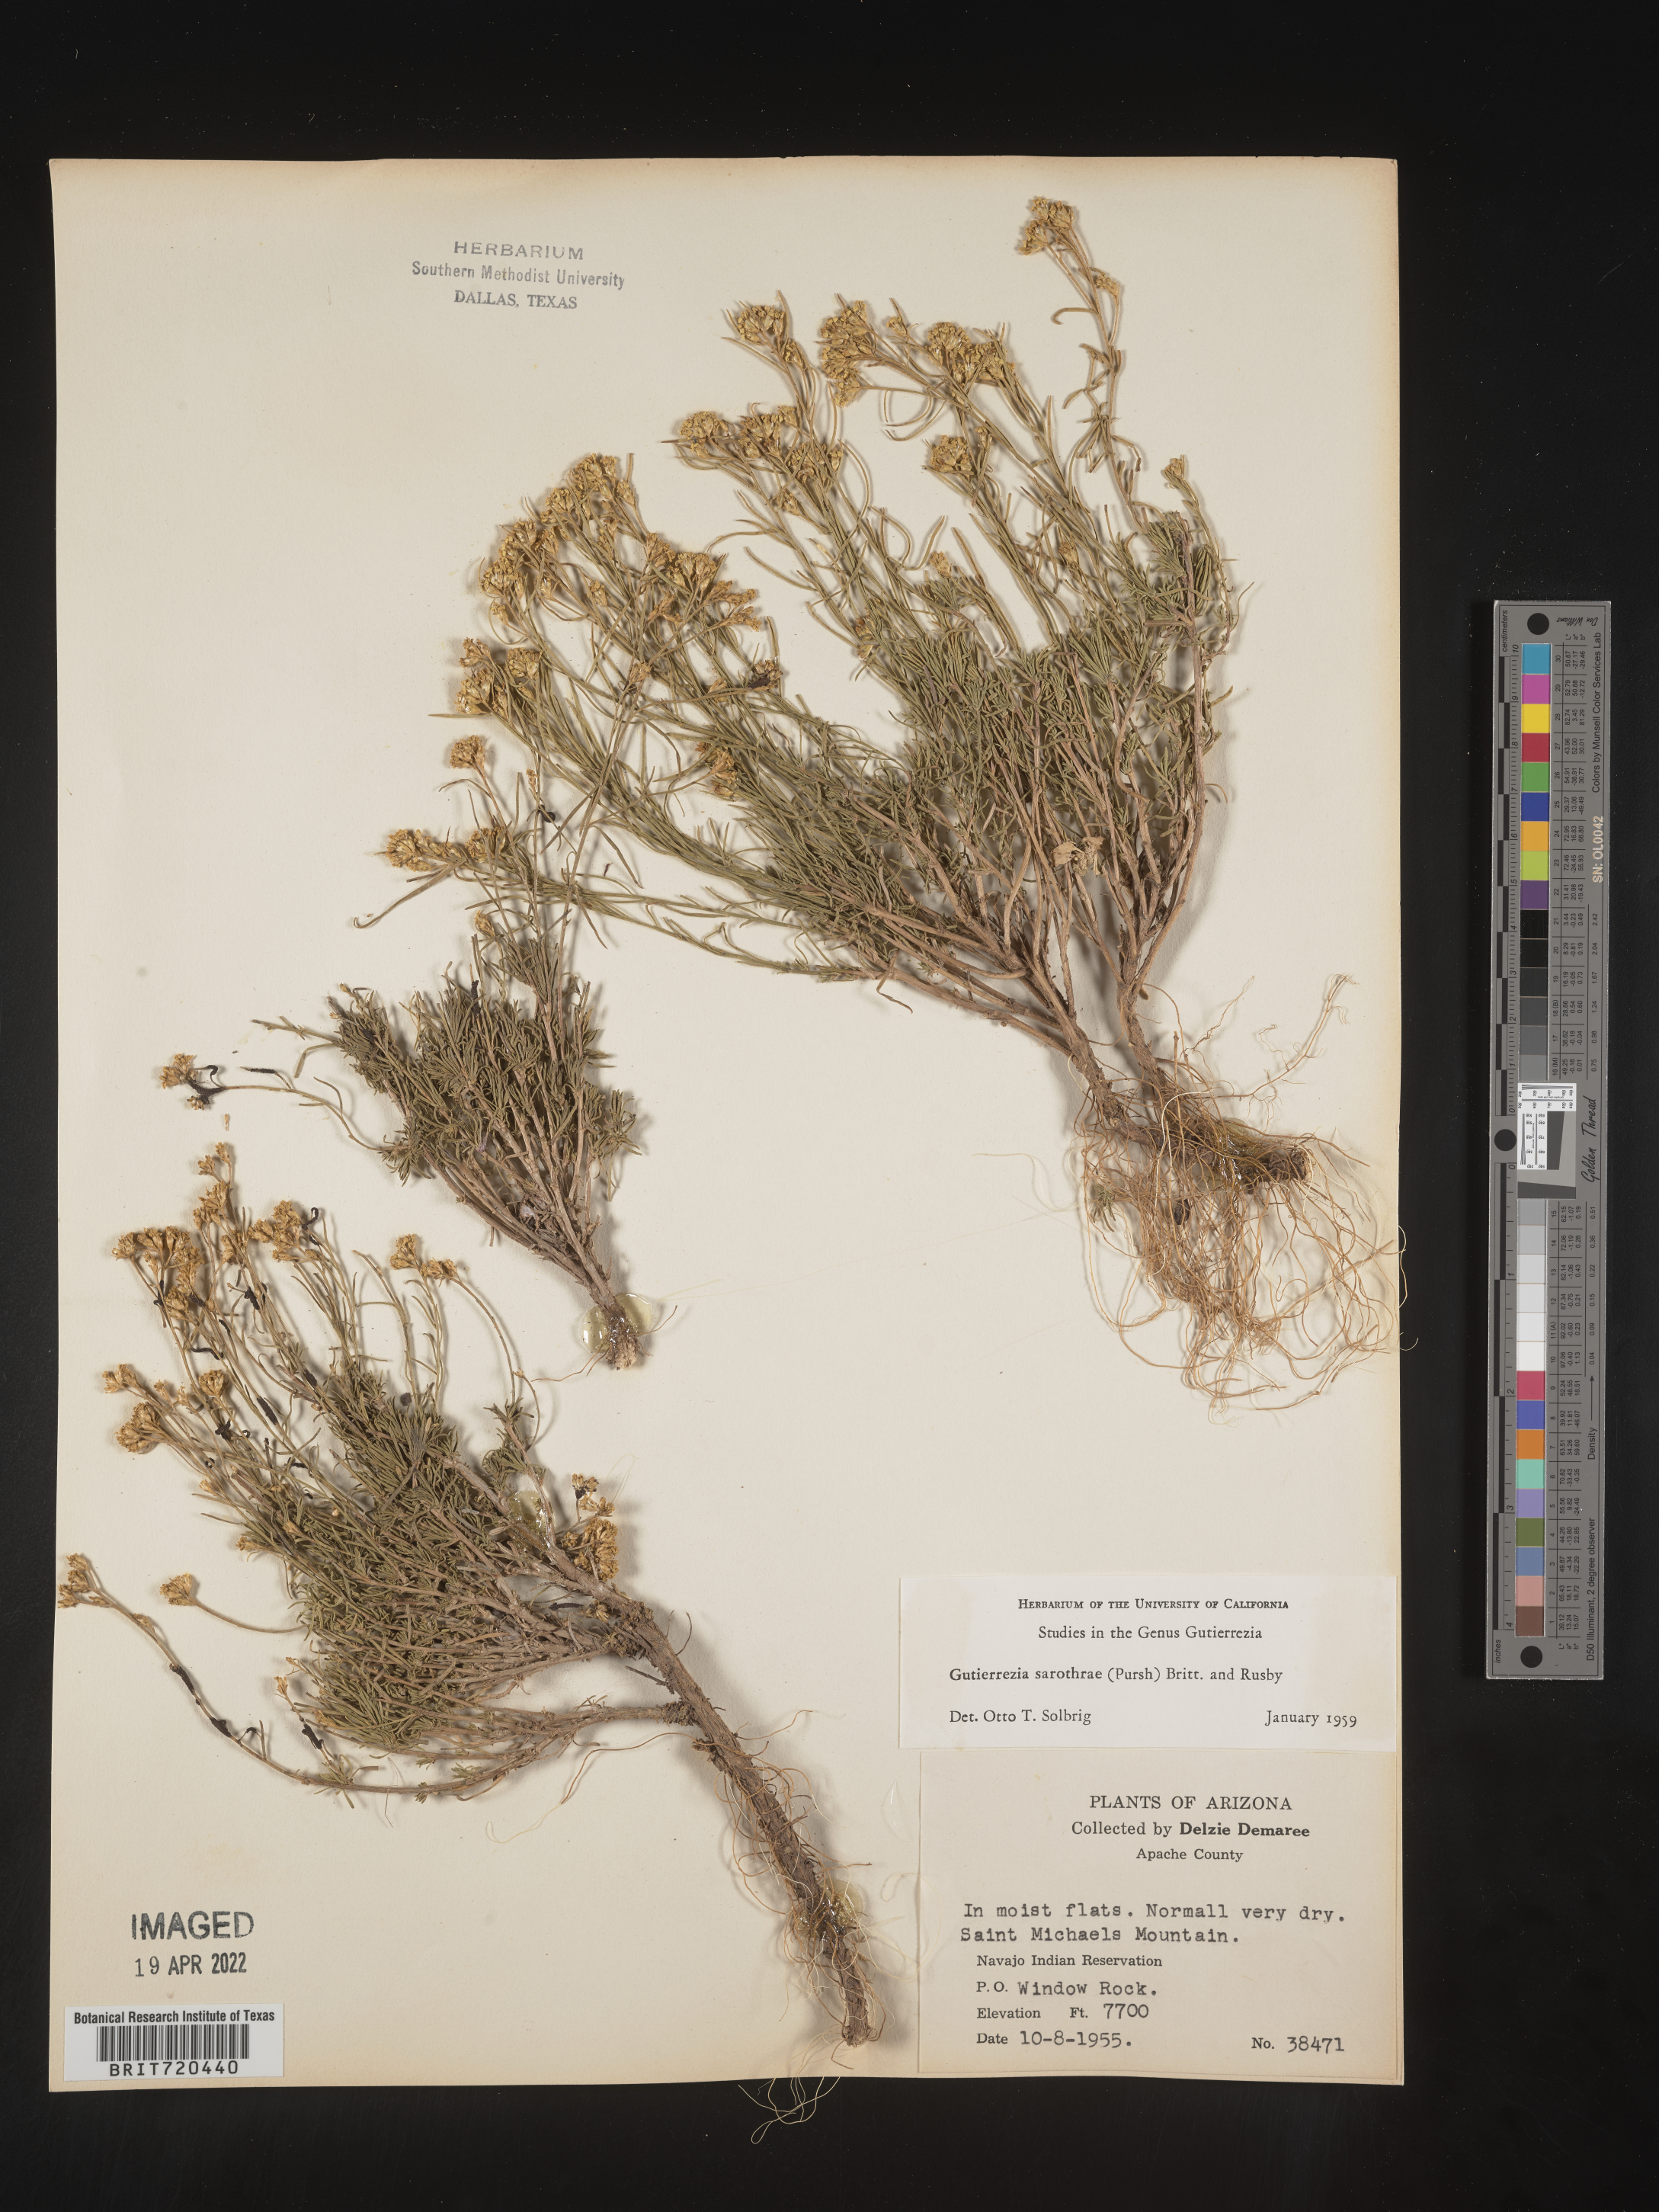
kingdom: Plantae
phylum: Tracheophyta
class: Magnoliopsida
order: Asterales
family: Asteraceae
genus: Gutierrezia
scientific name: Gutierrezia sarothrae
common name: Broom snakeweed
